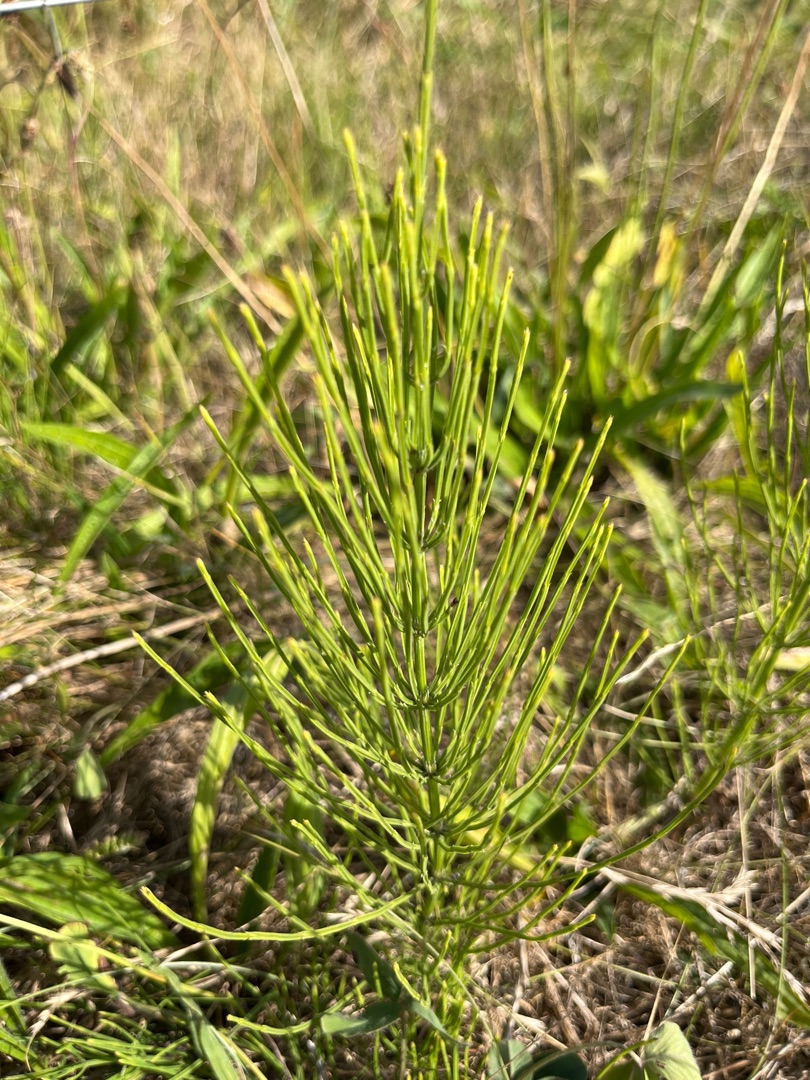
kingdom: Plantae
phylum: Tracheophyta
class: Polypodiopsida
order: Equisetales
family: Equisetaceae
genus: Equisetum
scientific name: Equisetum arvense
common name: Ager-padderok
